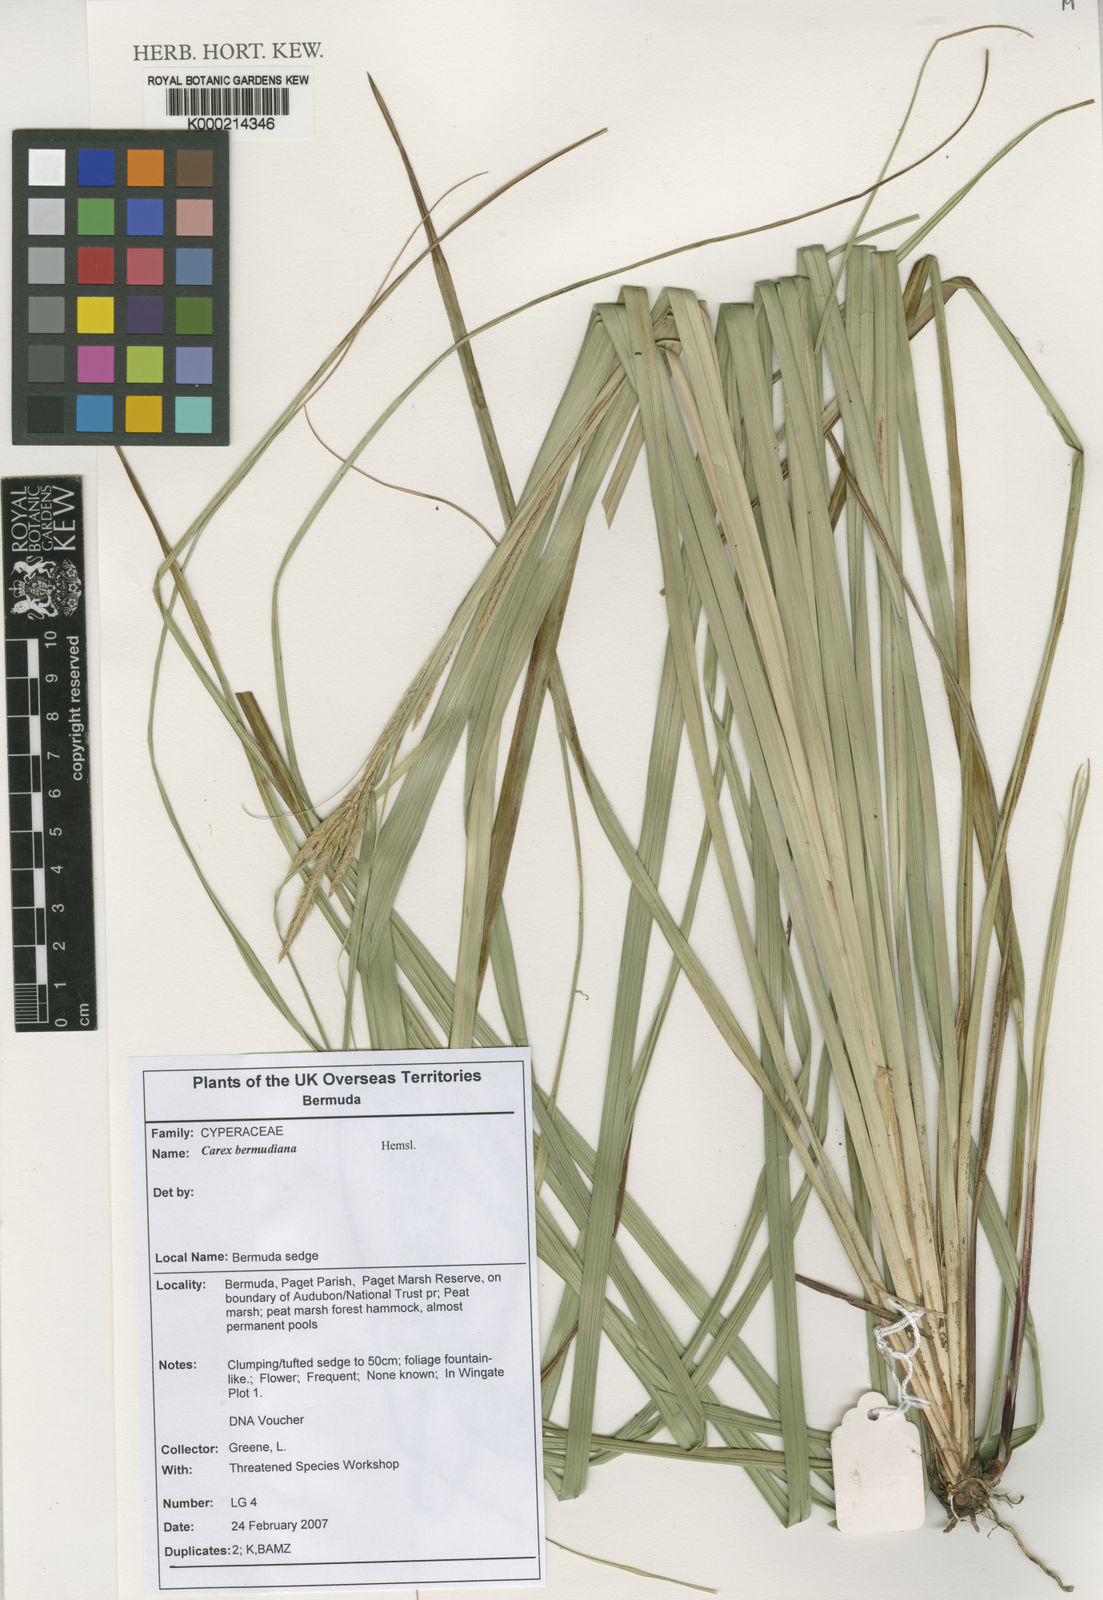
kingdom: Plantae
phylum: Tracheophyta
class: Liliopsida
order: Poales
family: Cyperaceae
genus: Carex
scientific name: Carex bermudiana
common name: Bermuda sedge
